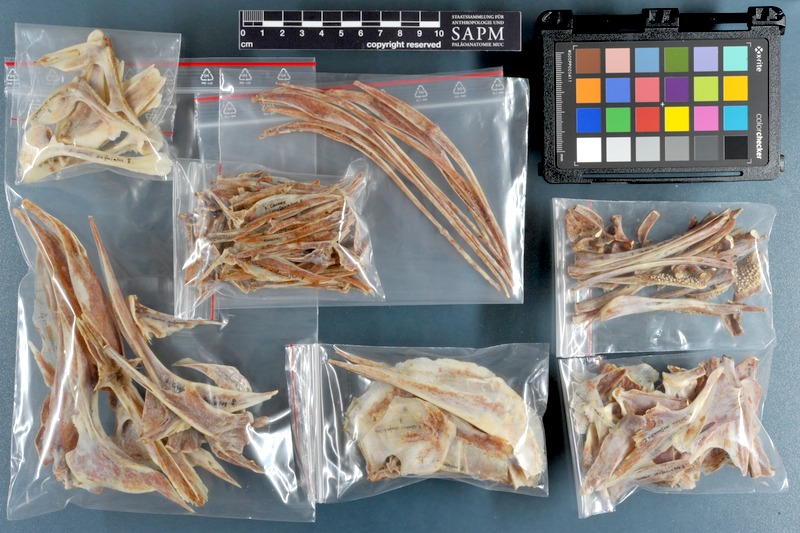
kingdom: Animalia
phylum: Chordata
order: Perciformes
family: Carangidae
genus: Caranx
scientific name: Caranx sexfasciatus
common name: Bigeye trevally
